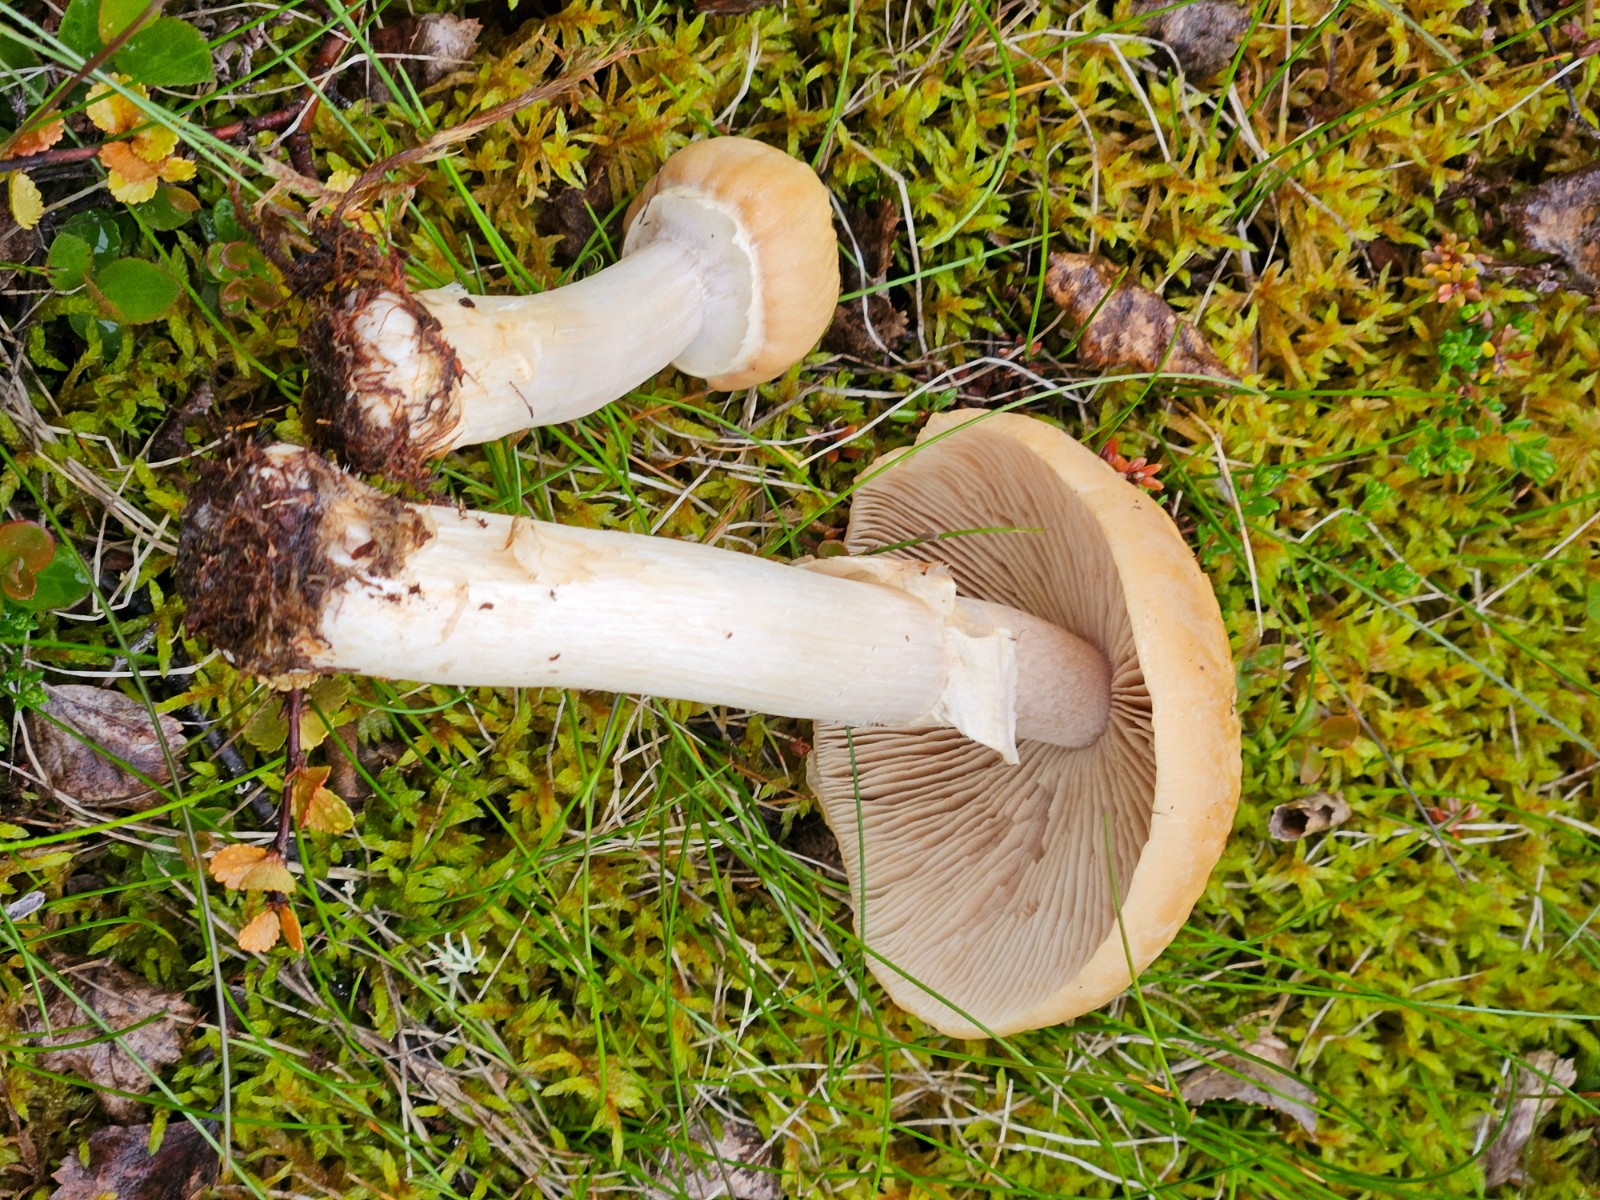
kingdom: Fungi
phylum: Basidiomycota
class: Agaricomycetes
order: Agaricales
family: Cortinariaceae
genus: Cortinarius
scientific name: Cortinarius caperatus
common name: klidhat
